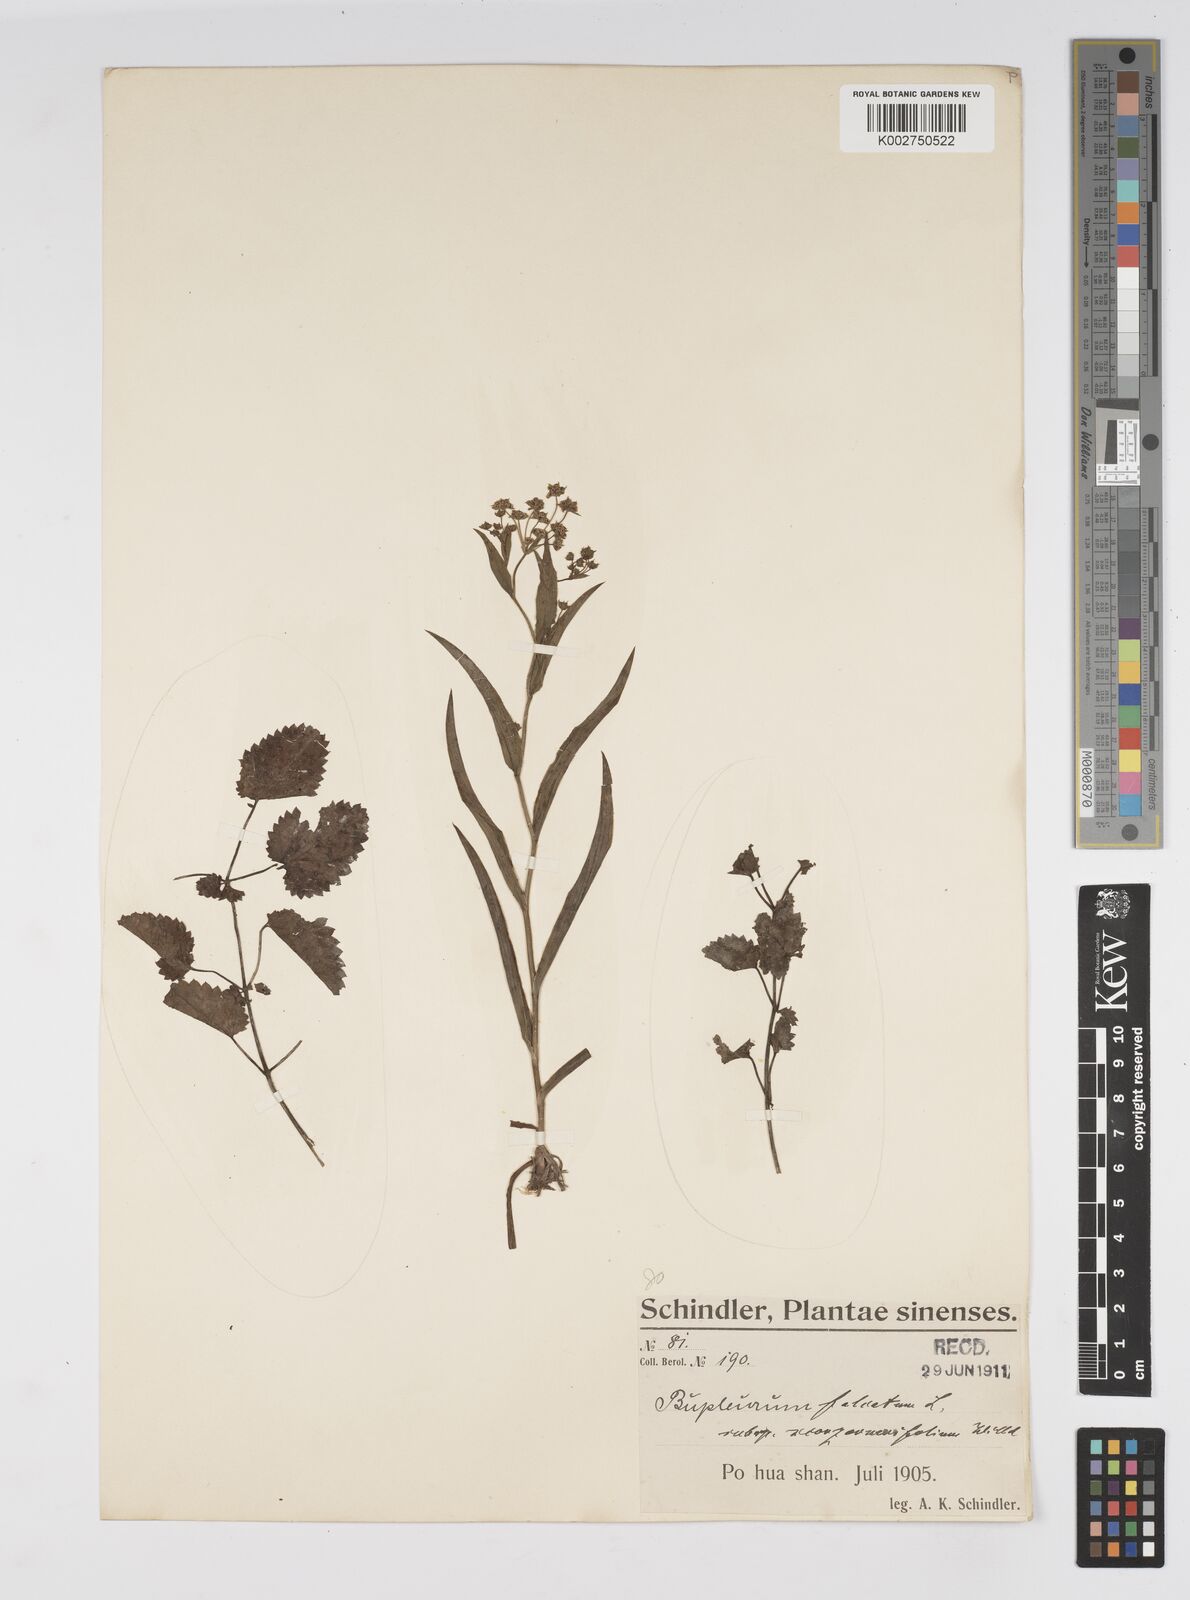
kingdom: Plantae
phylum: Tracheophyta
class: Magnoliopsida
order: Apiales
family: Apiaceae
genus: Bupleurum
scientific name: Bupleurum scorzonerifolium
